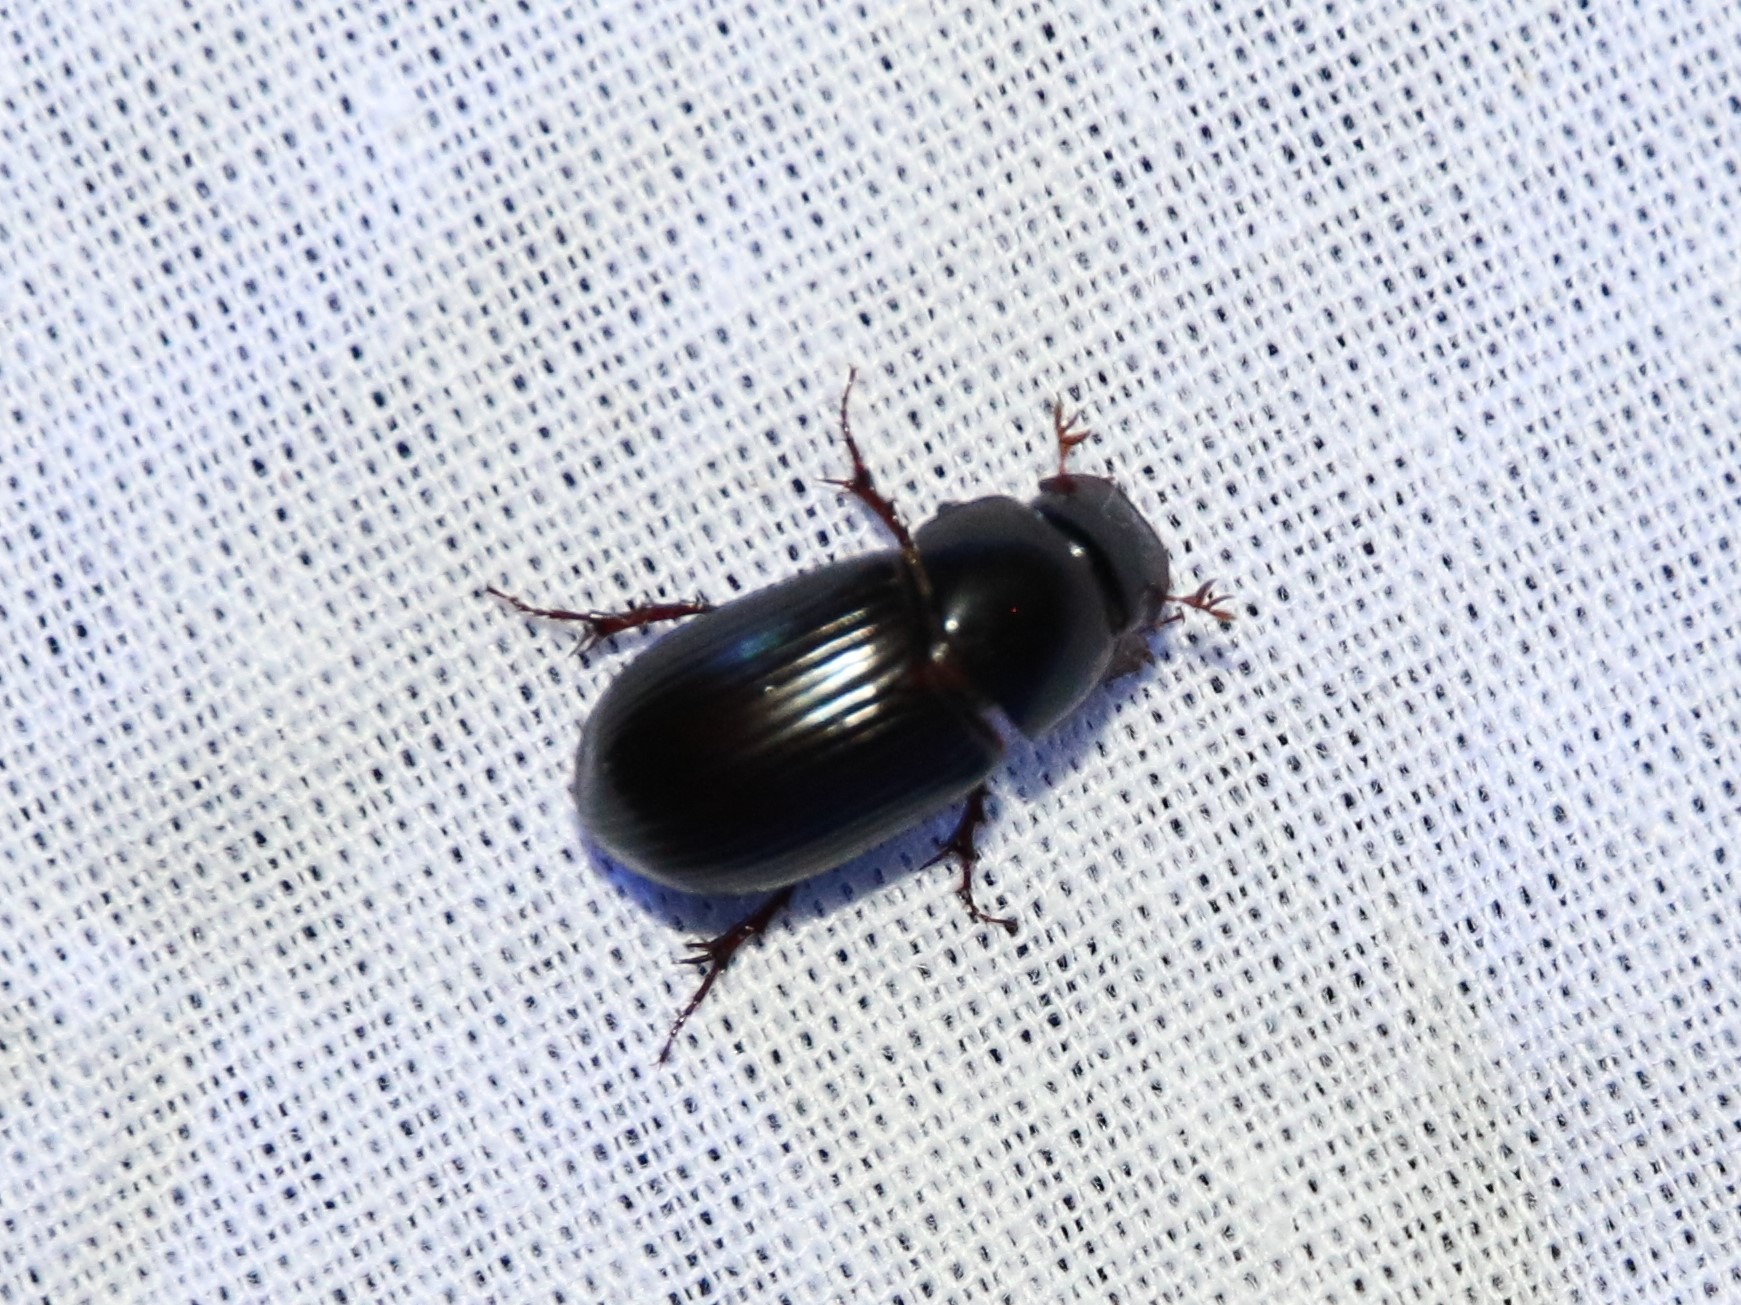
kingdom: Animalia
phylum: Arthropoda
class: Insecta
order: Coleoptera
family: Scarabaeidae
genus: Acrossus
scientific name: Acrossus rufipes
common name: Rødbenet møgbille
